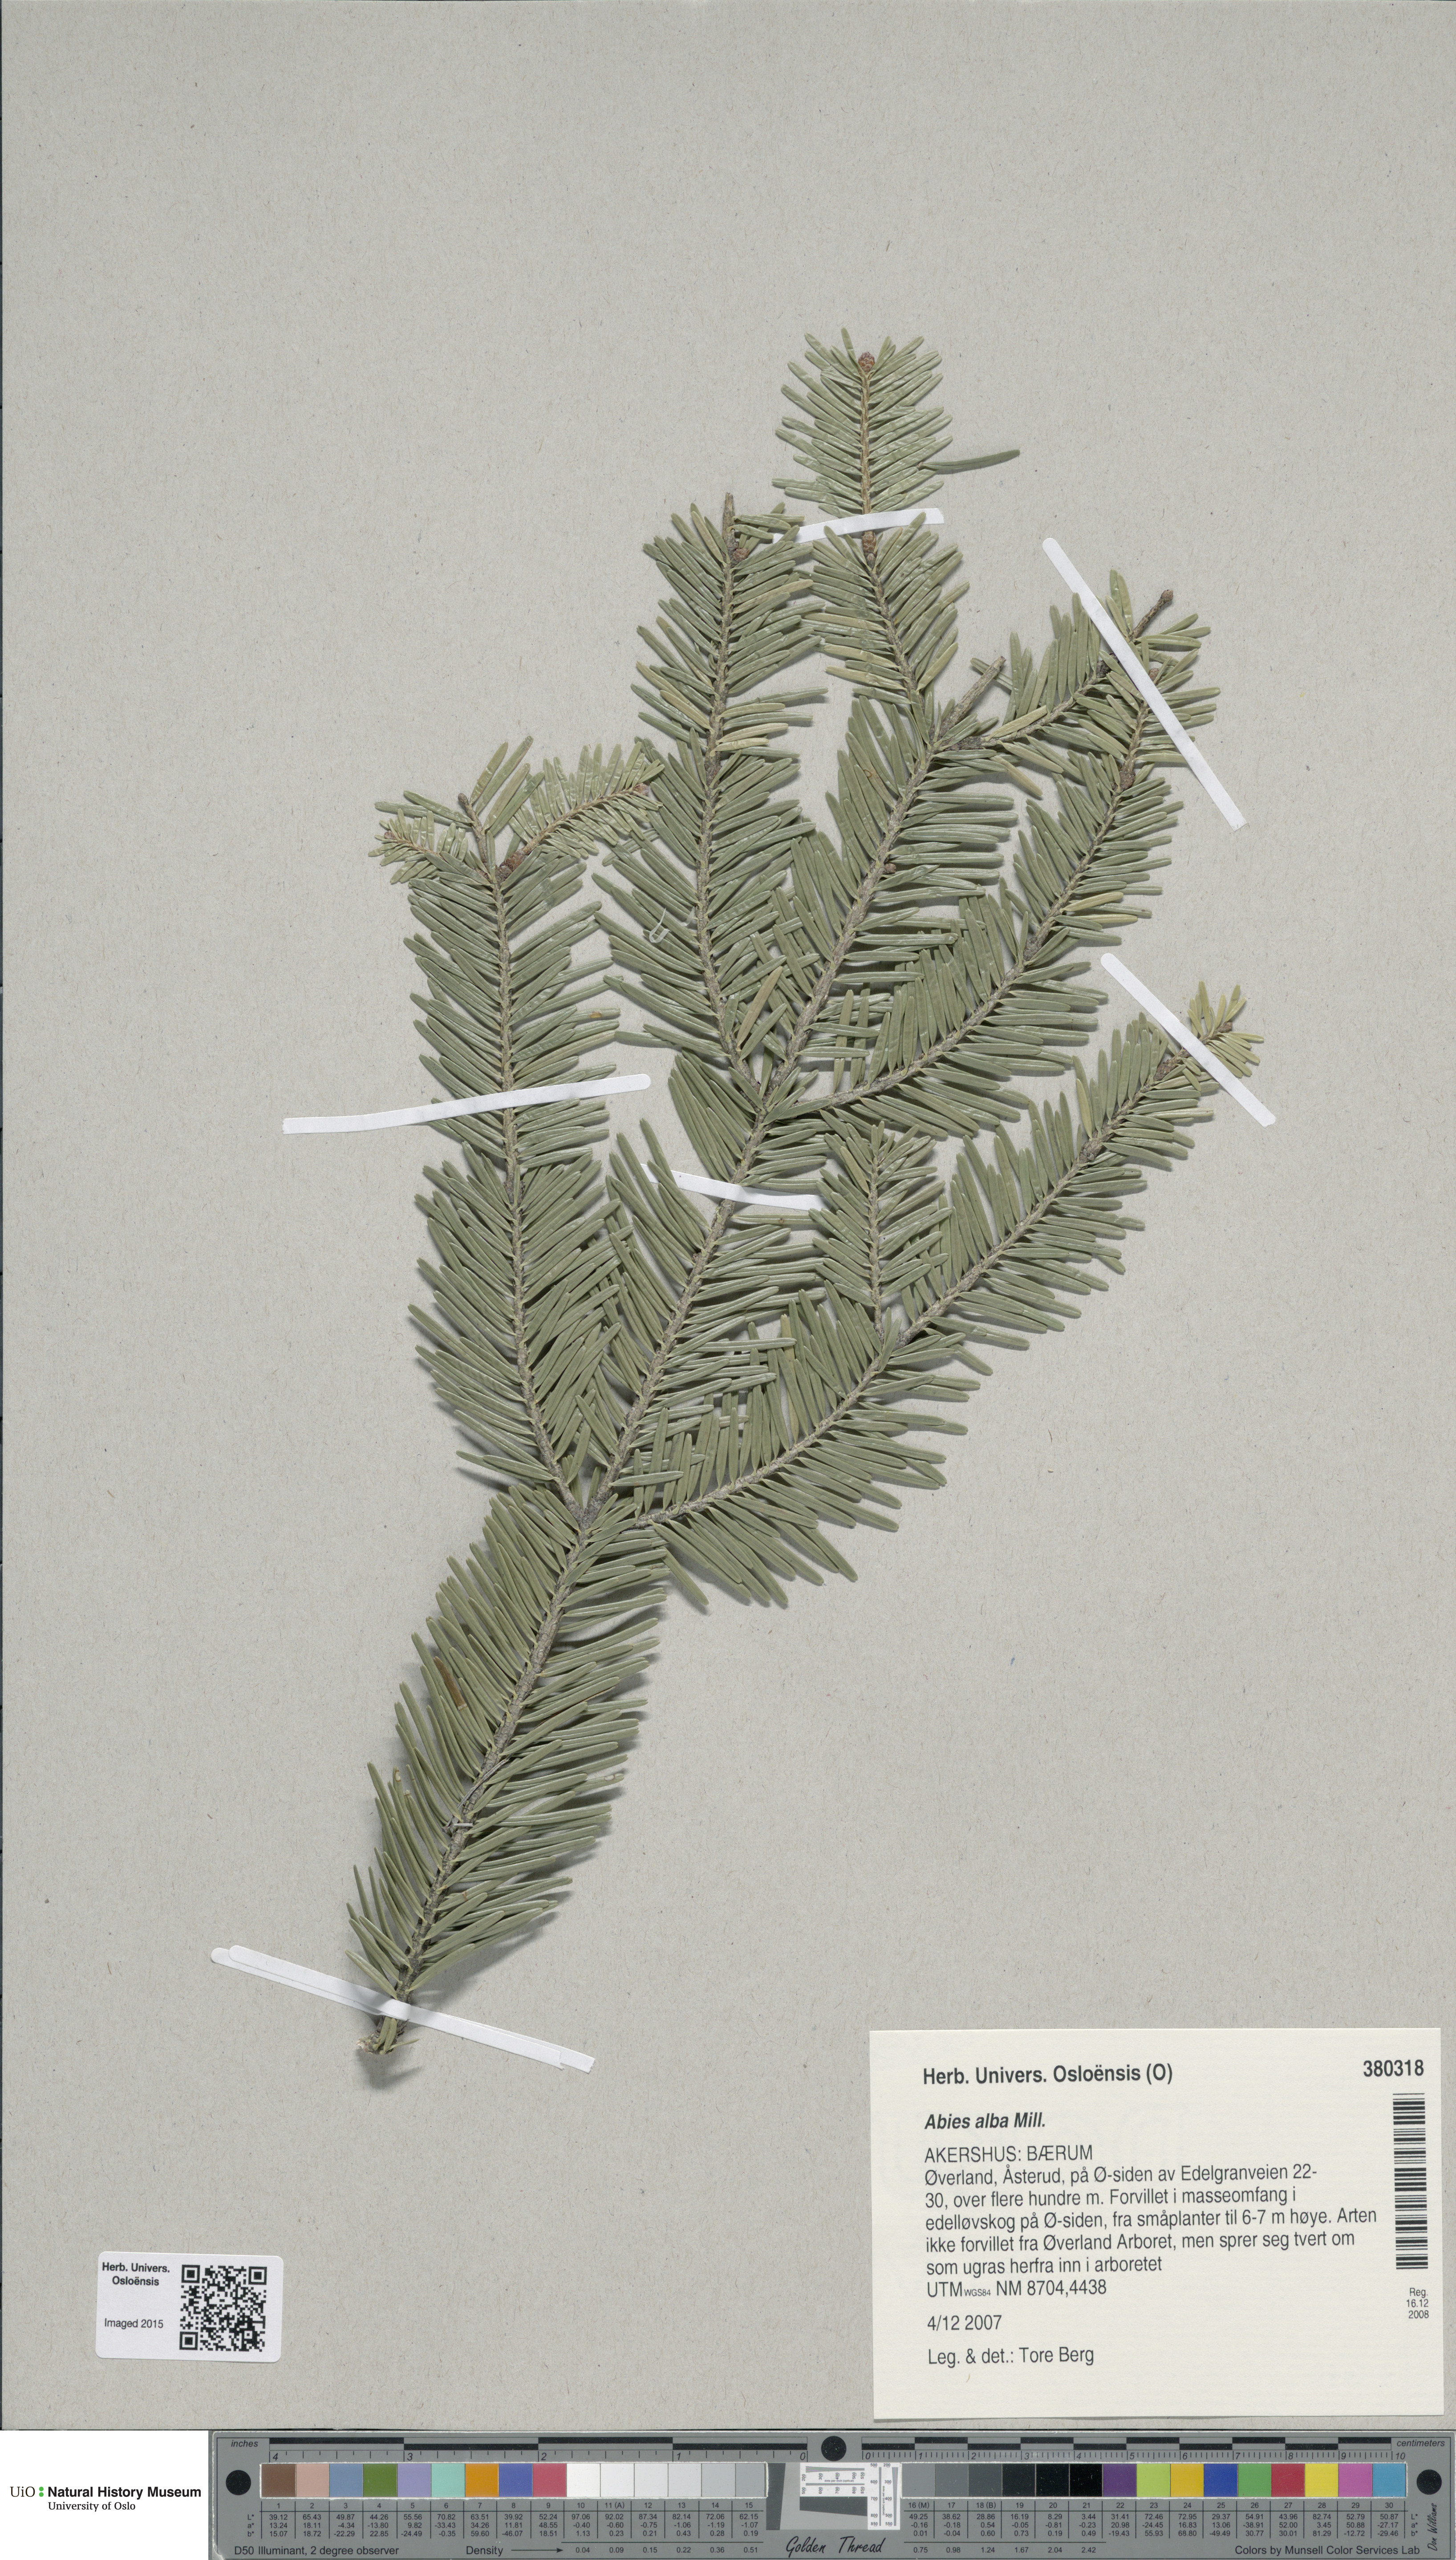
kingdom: Plantae
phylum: Tracheophyta
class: Pinopsida
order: Pinales
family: Pinaceae
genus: Abies
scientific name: Abies alba
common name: Silver fir
